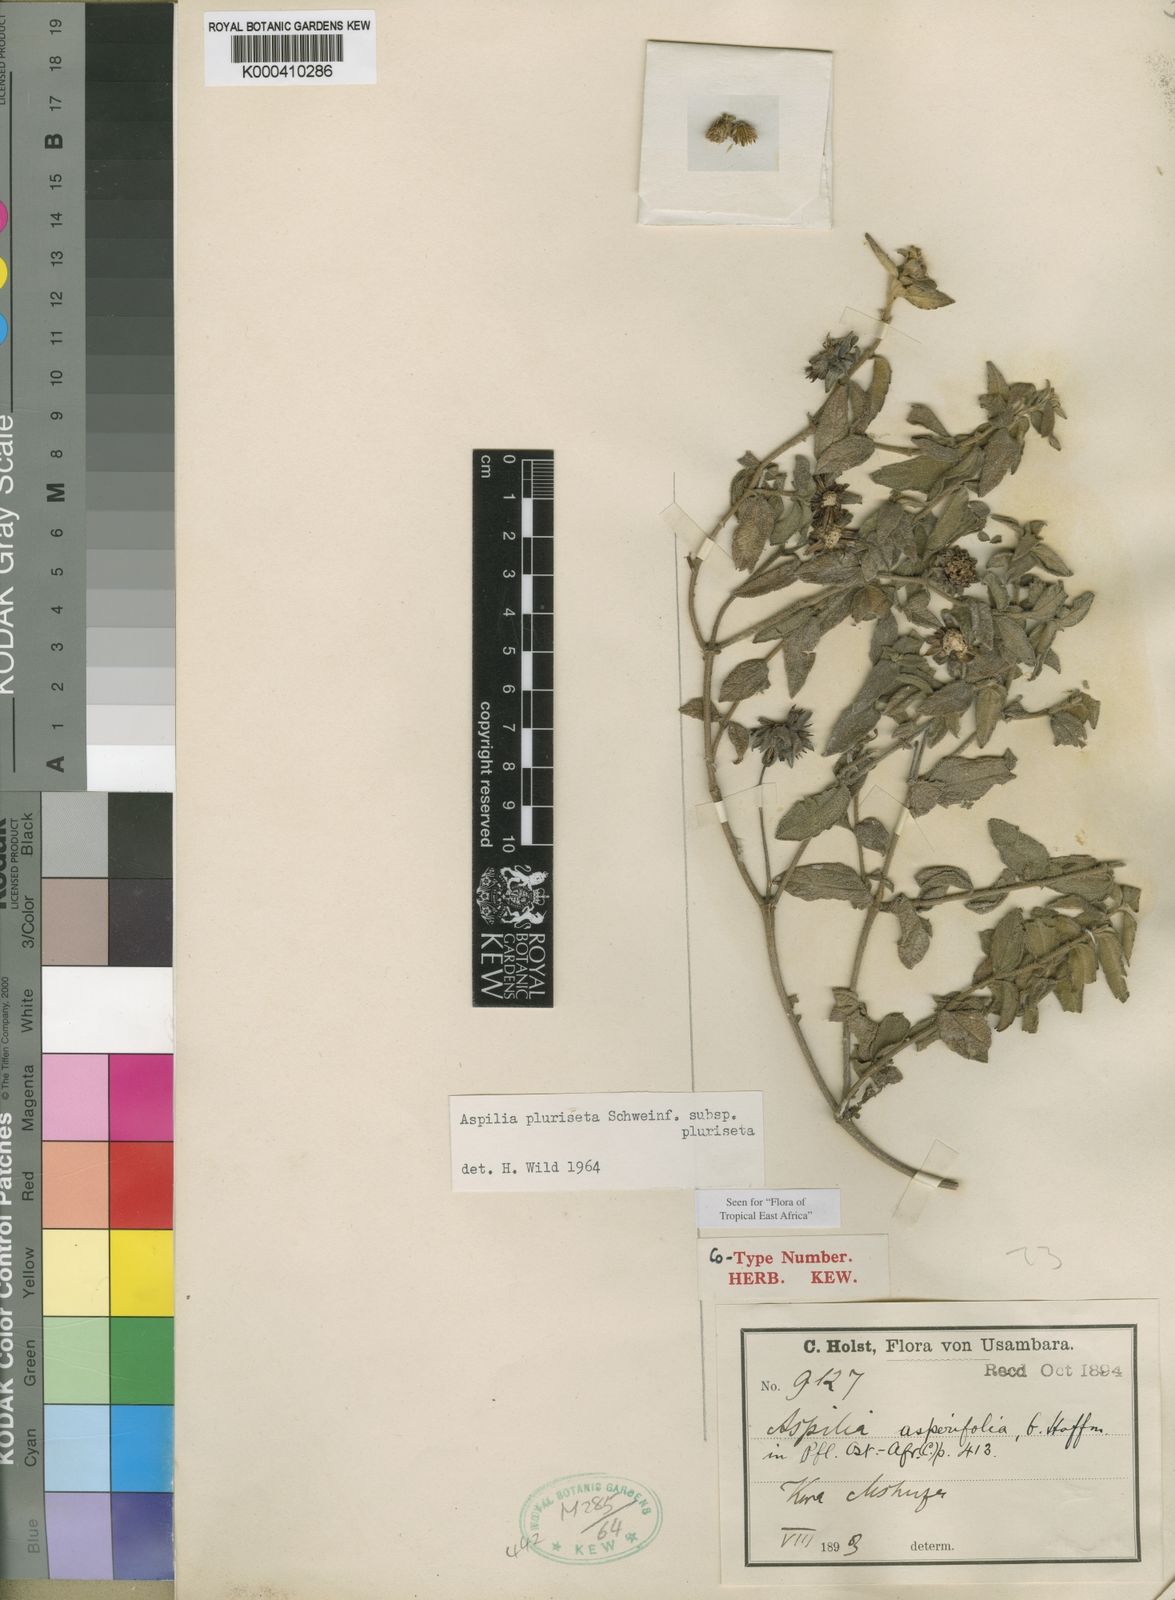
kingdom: Plantae
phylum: Tracheophyta
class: Magnoliopsida
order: Asterales
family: Asteraceae
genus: Aspilia
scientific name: Aspilia
